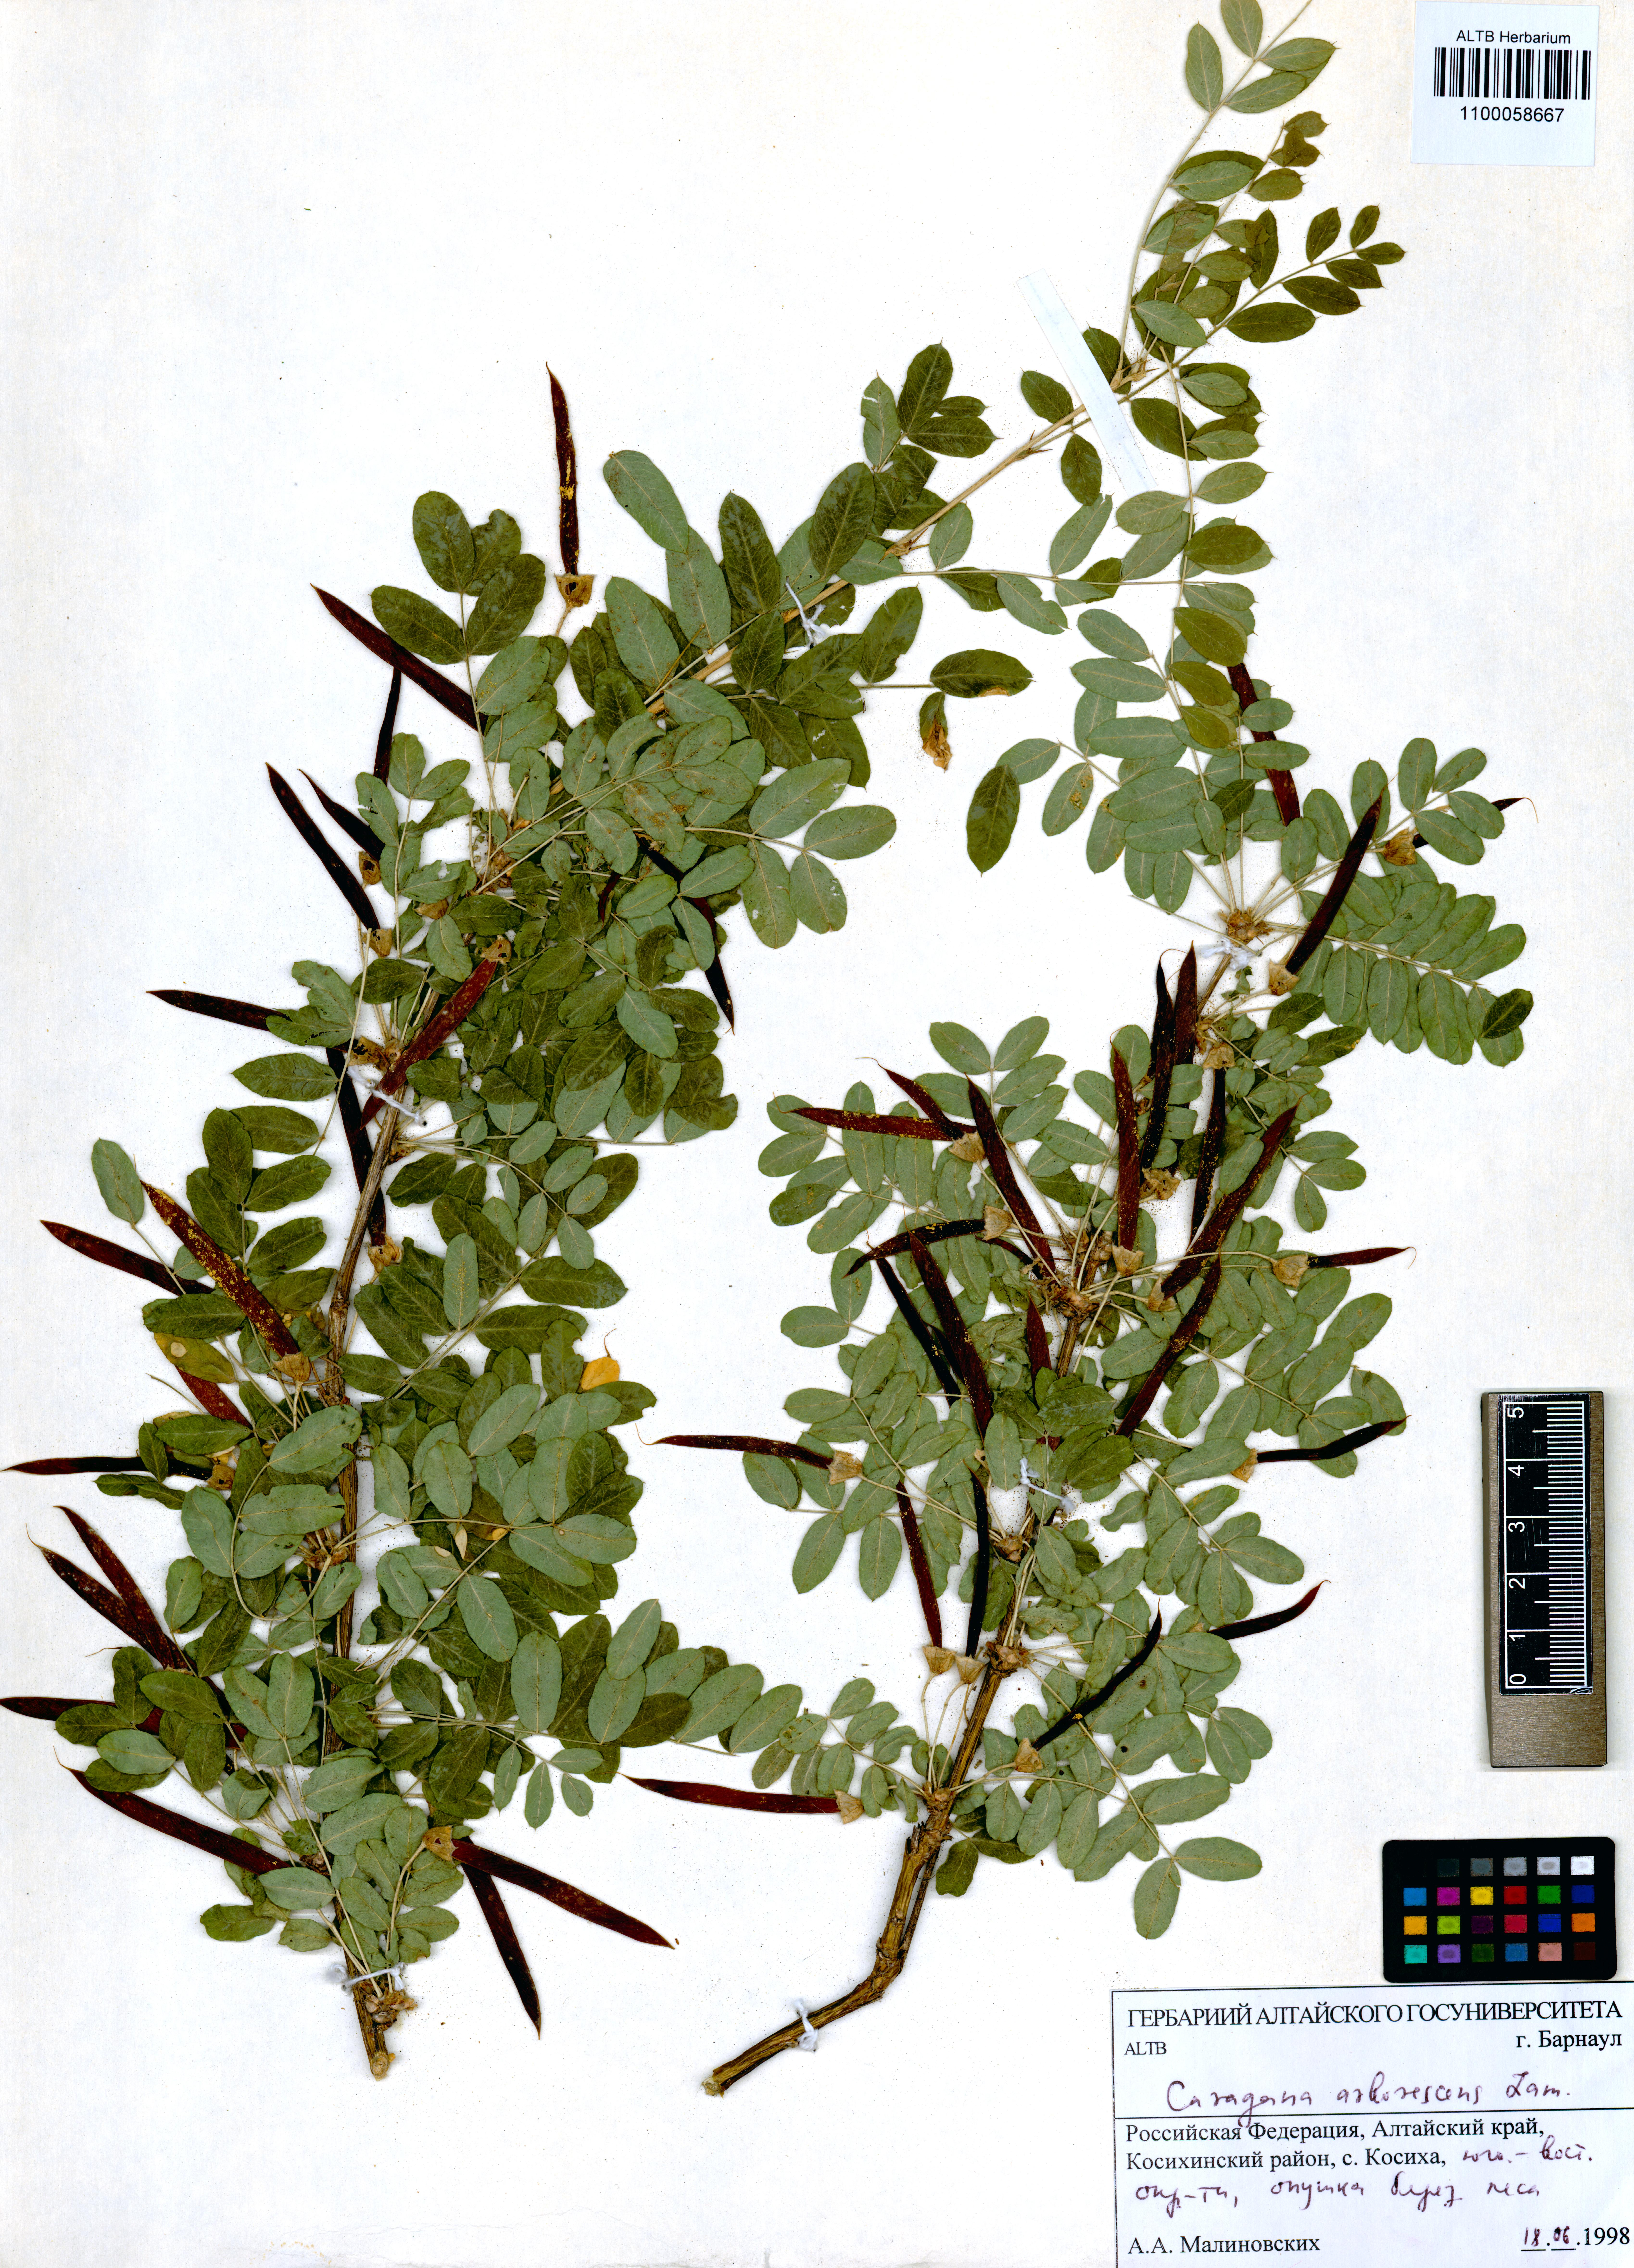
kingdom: Plantae
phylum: Tracheophyta
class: Magnoliopsida
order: Fabales
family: Fabaceae
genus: Caragana
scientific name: Caragana arborescens
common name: Siberian peashrub
